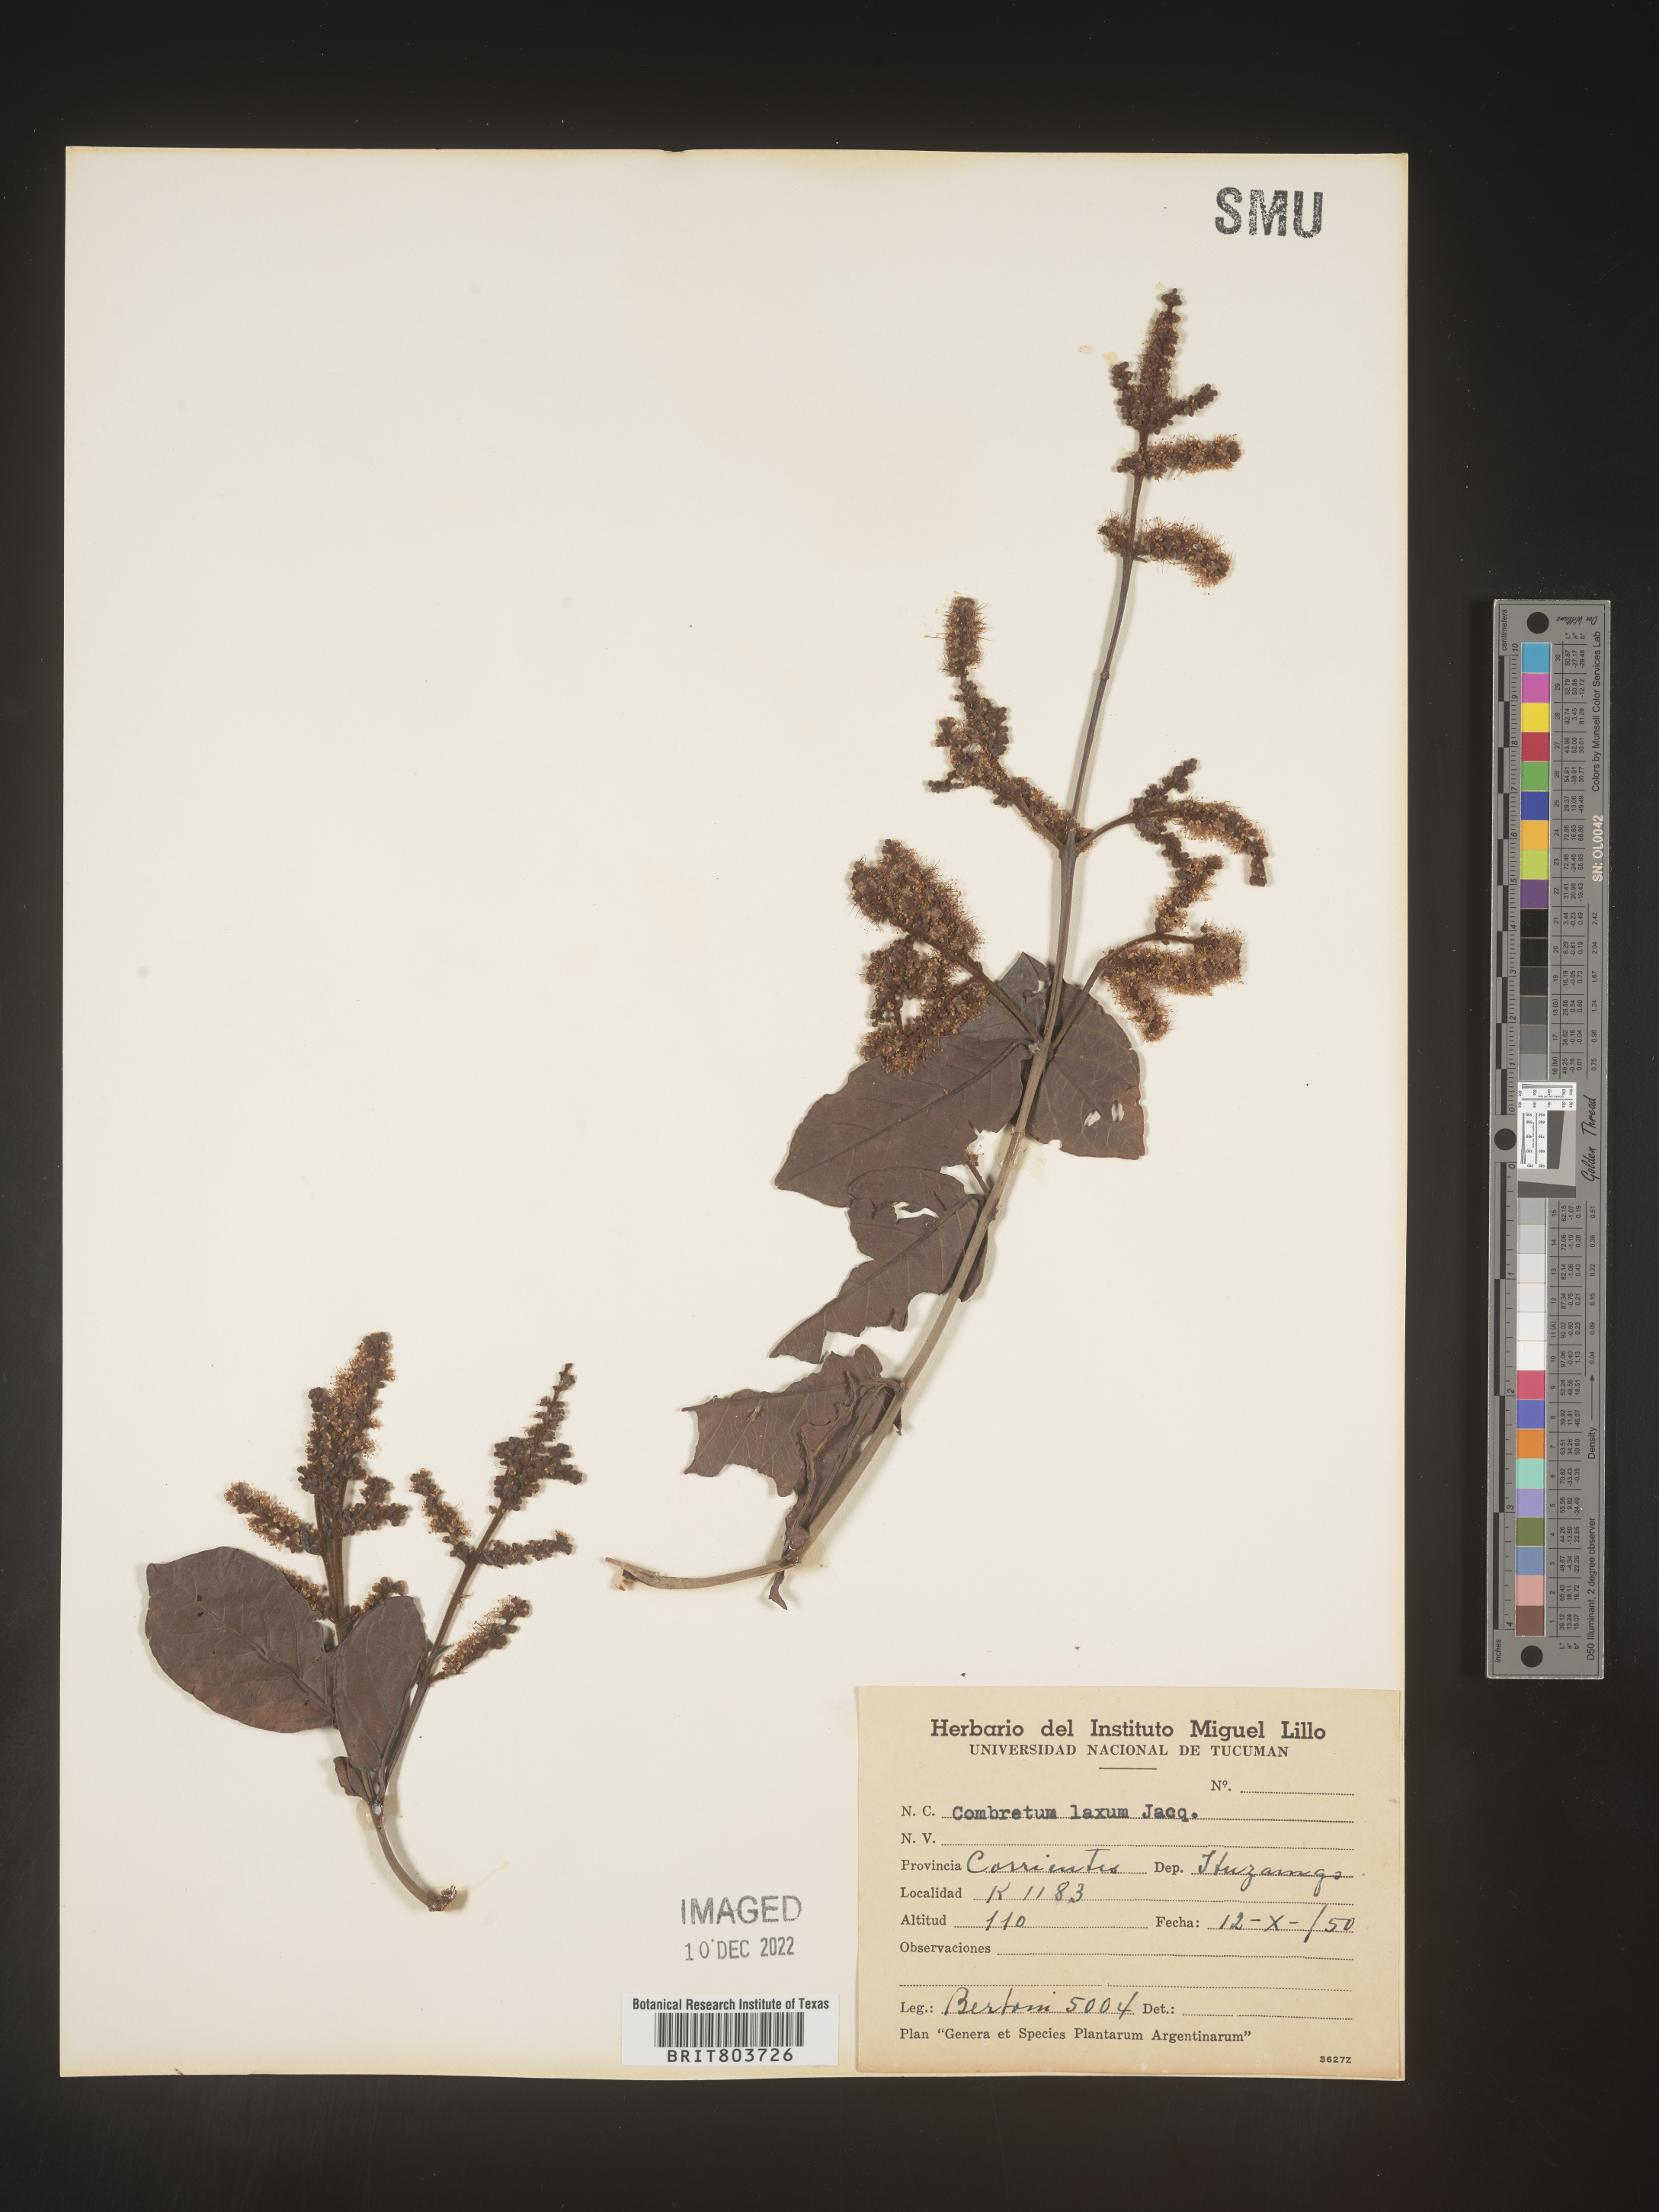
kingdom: Plantae
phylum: Tracheophyta
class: Magnoliopsida
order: Myrtales
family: Combretaceae
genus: Combretum
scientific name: Combretum
